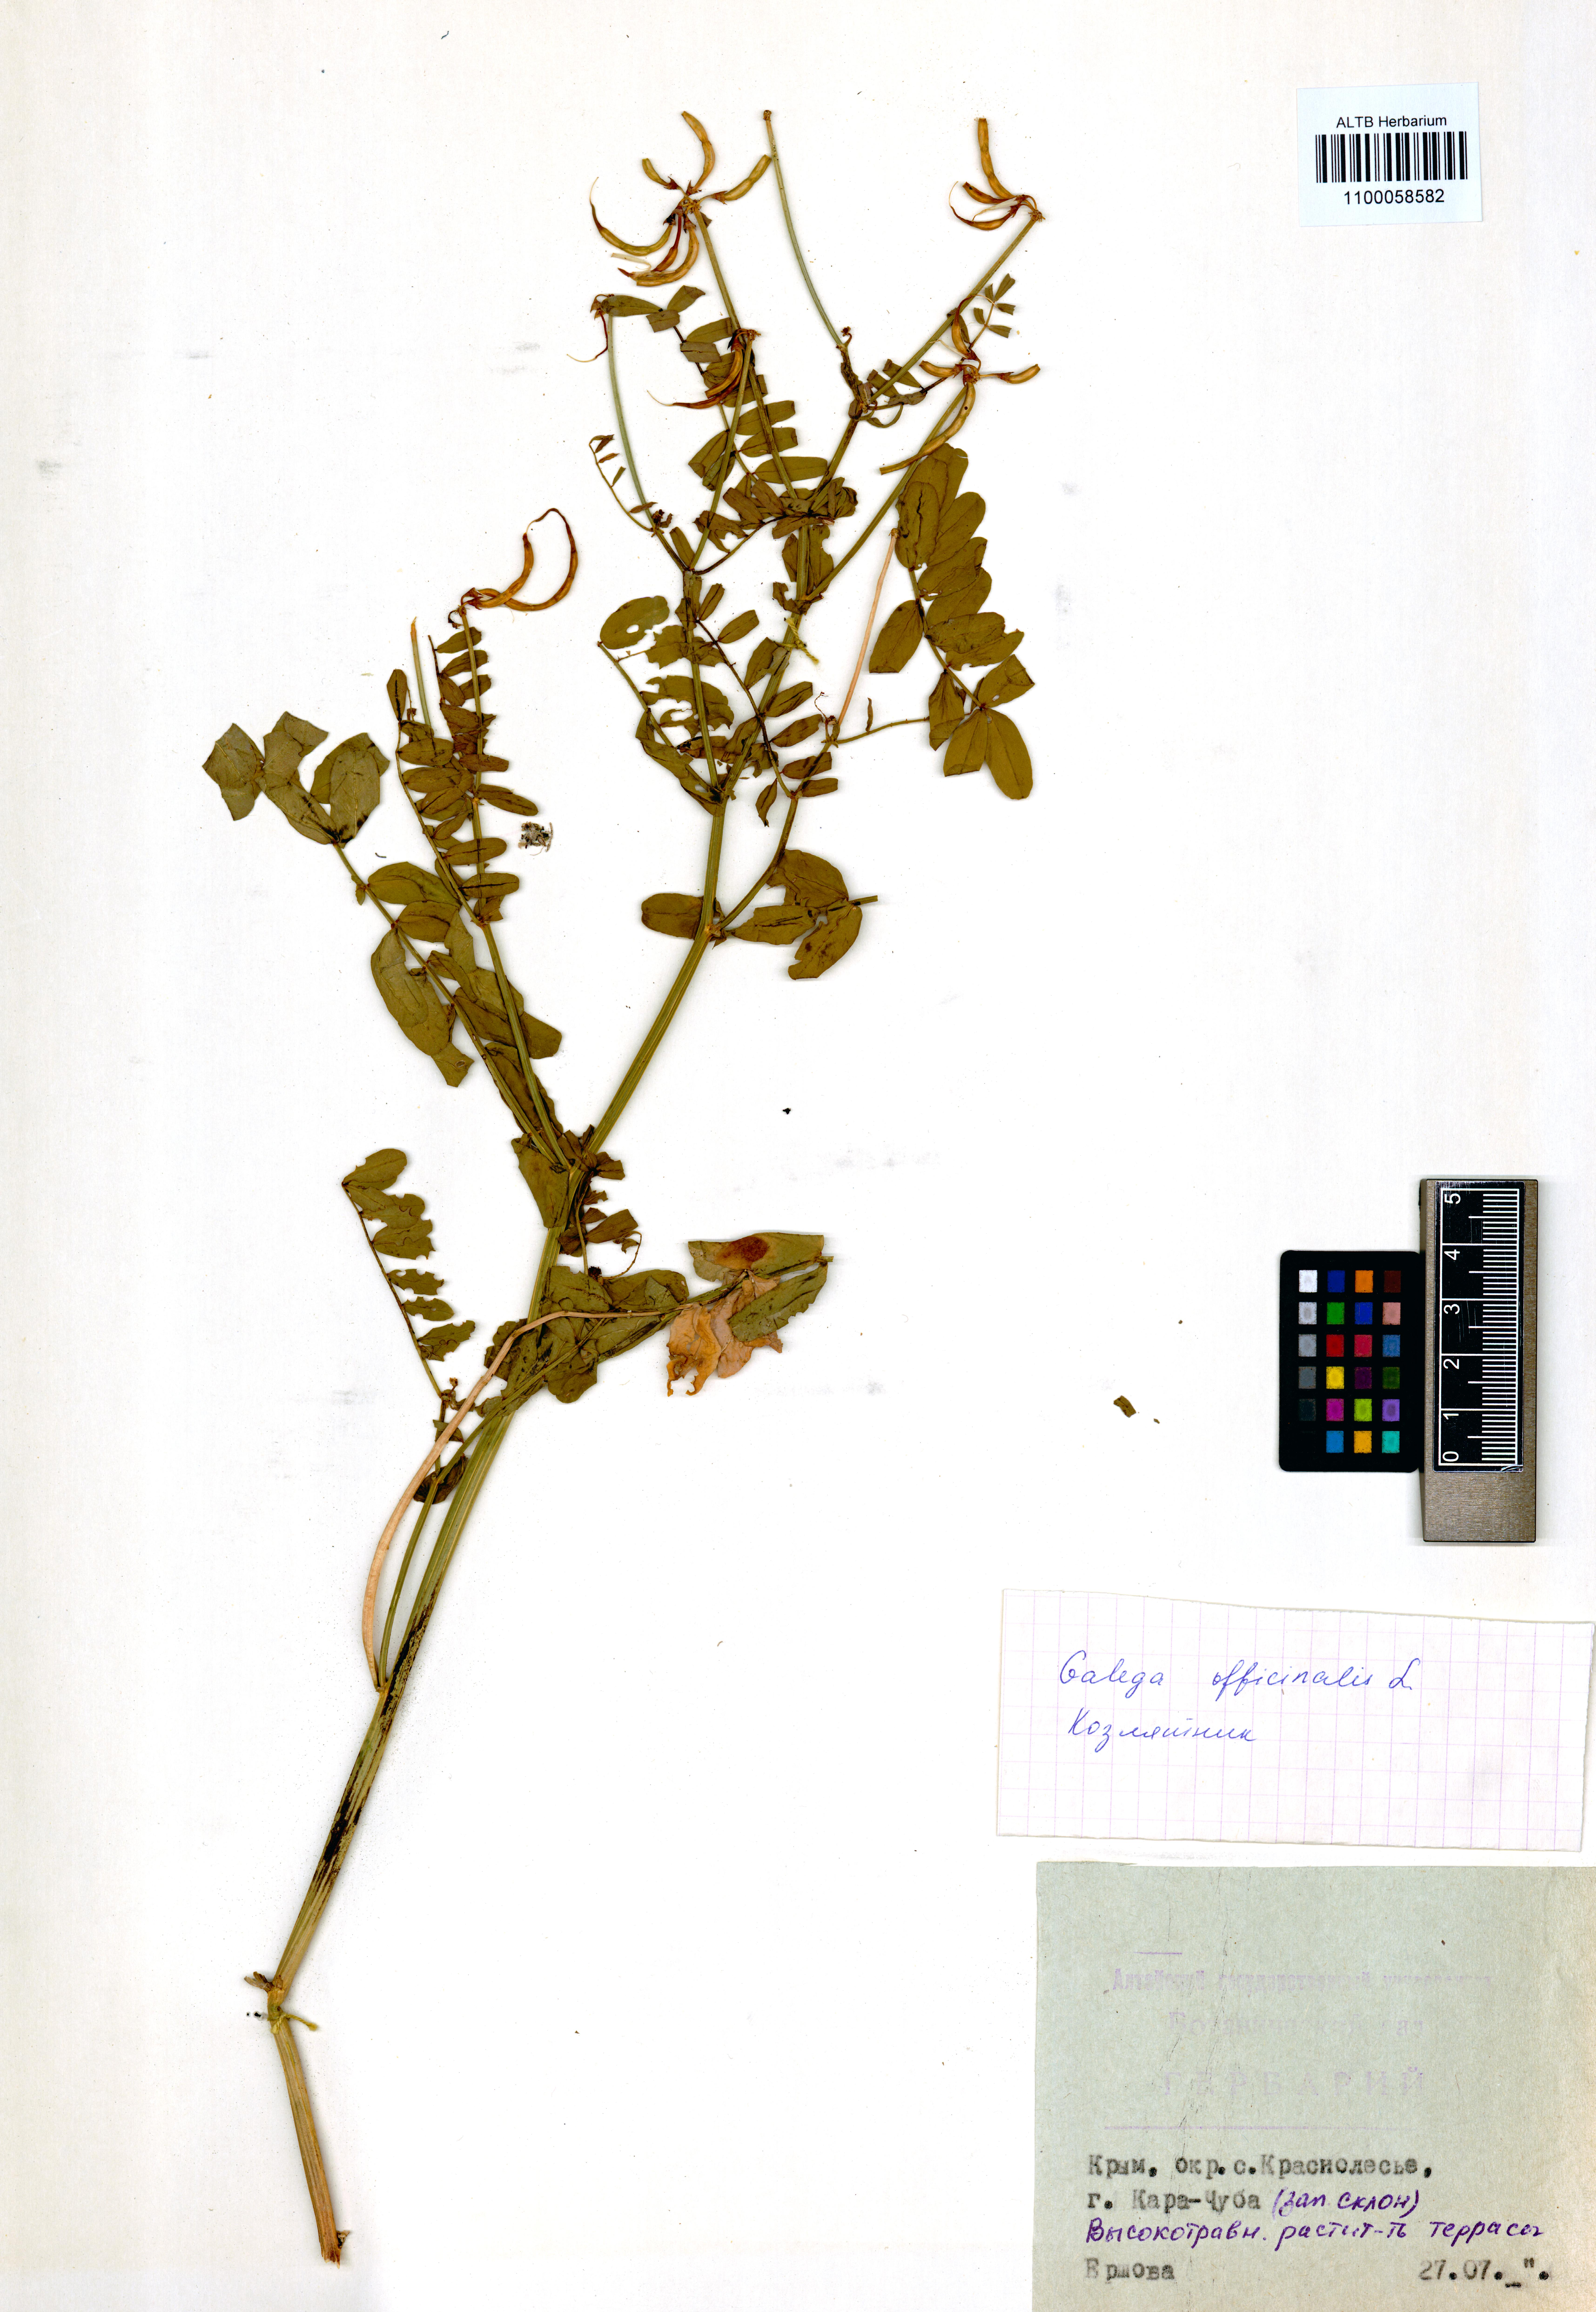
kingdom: Plantae
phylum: Tracheophyta
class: Magnoliopsida
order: Fabales
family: Fabaceae
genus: Galega
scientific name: Galega officinalis
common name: Goat's-rue
